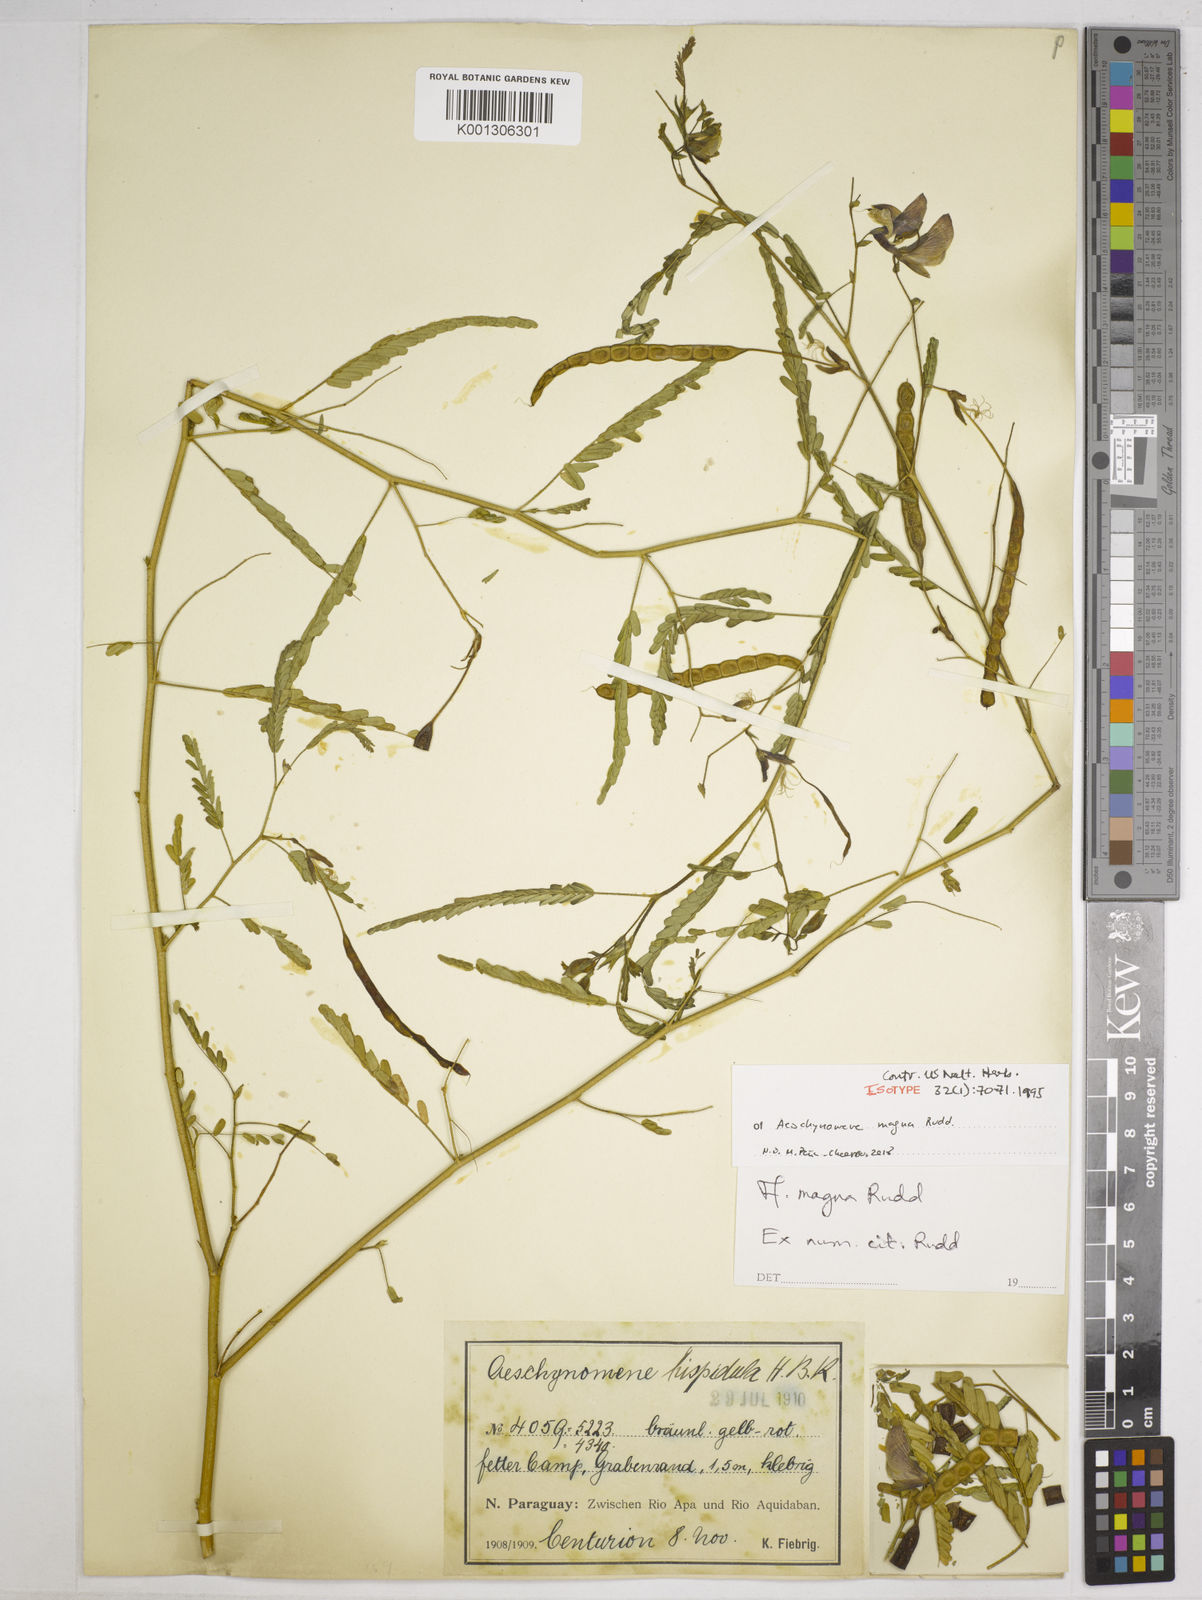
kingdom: Plantae
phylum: Tracheophyta
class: Magnoliopsida
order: Fabales
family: Fabaceae
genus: Aeschynomene
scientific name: Aeschynomene magna
